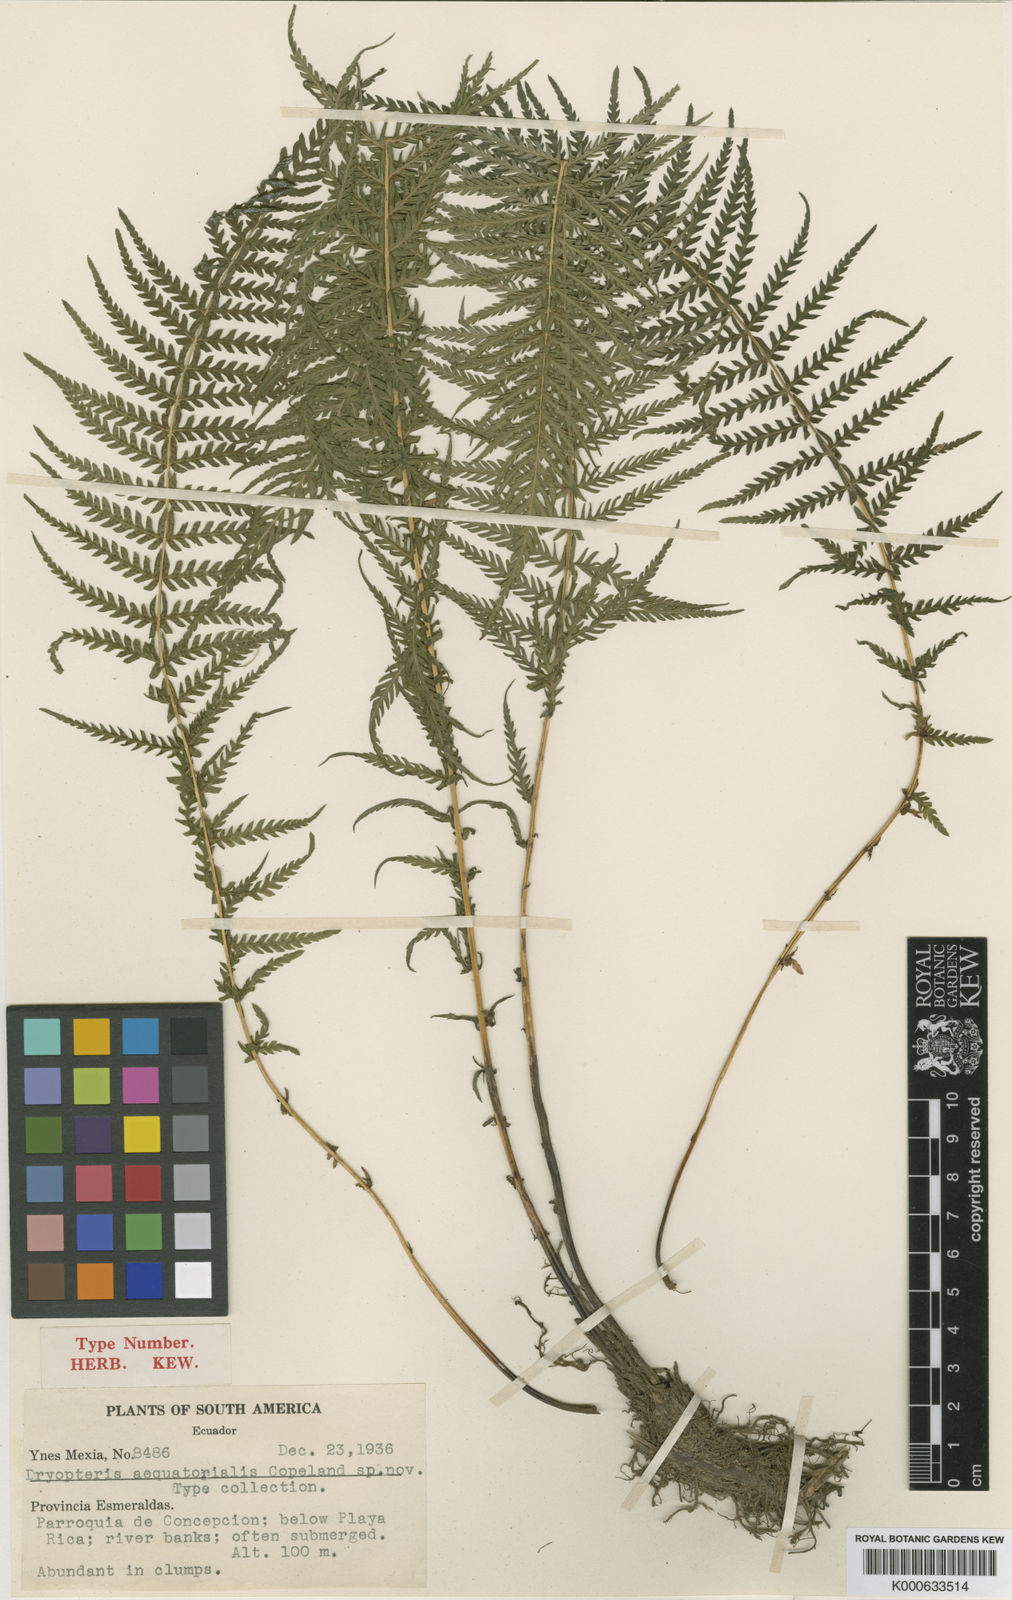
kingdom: Plantae
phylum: Tracheophyta
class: Polypodiopsida
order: Polypodiales
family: Thelypteridaceae
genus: Amauropelta
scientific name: Amauropelta
